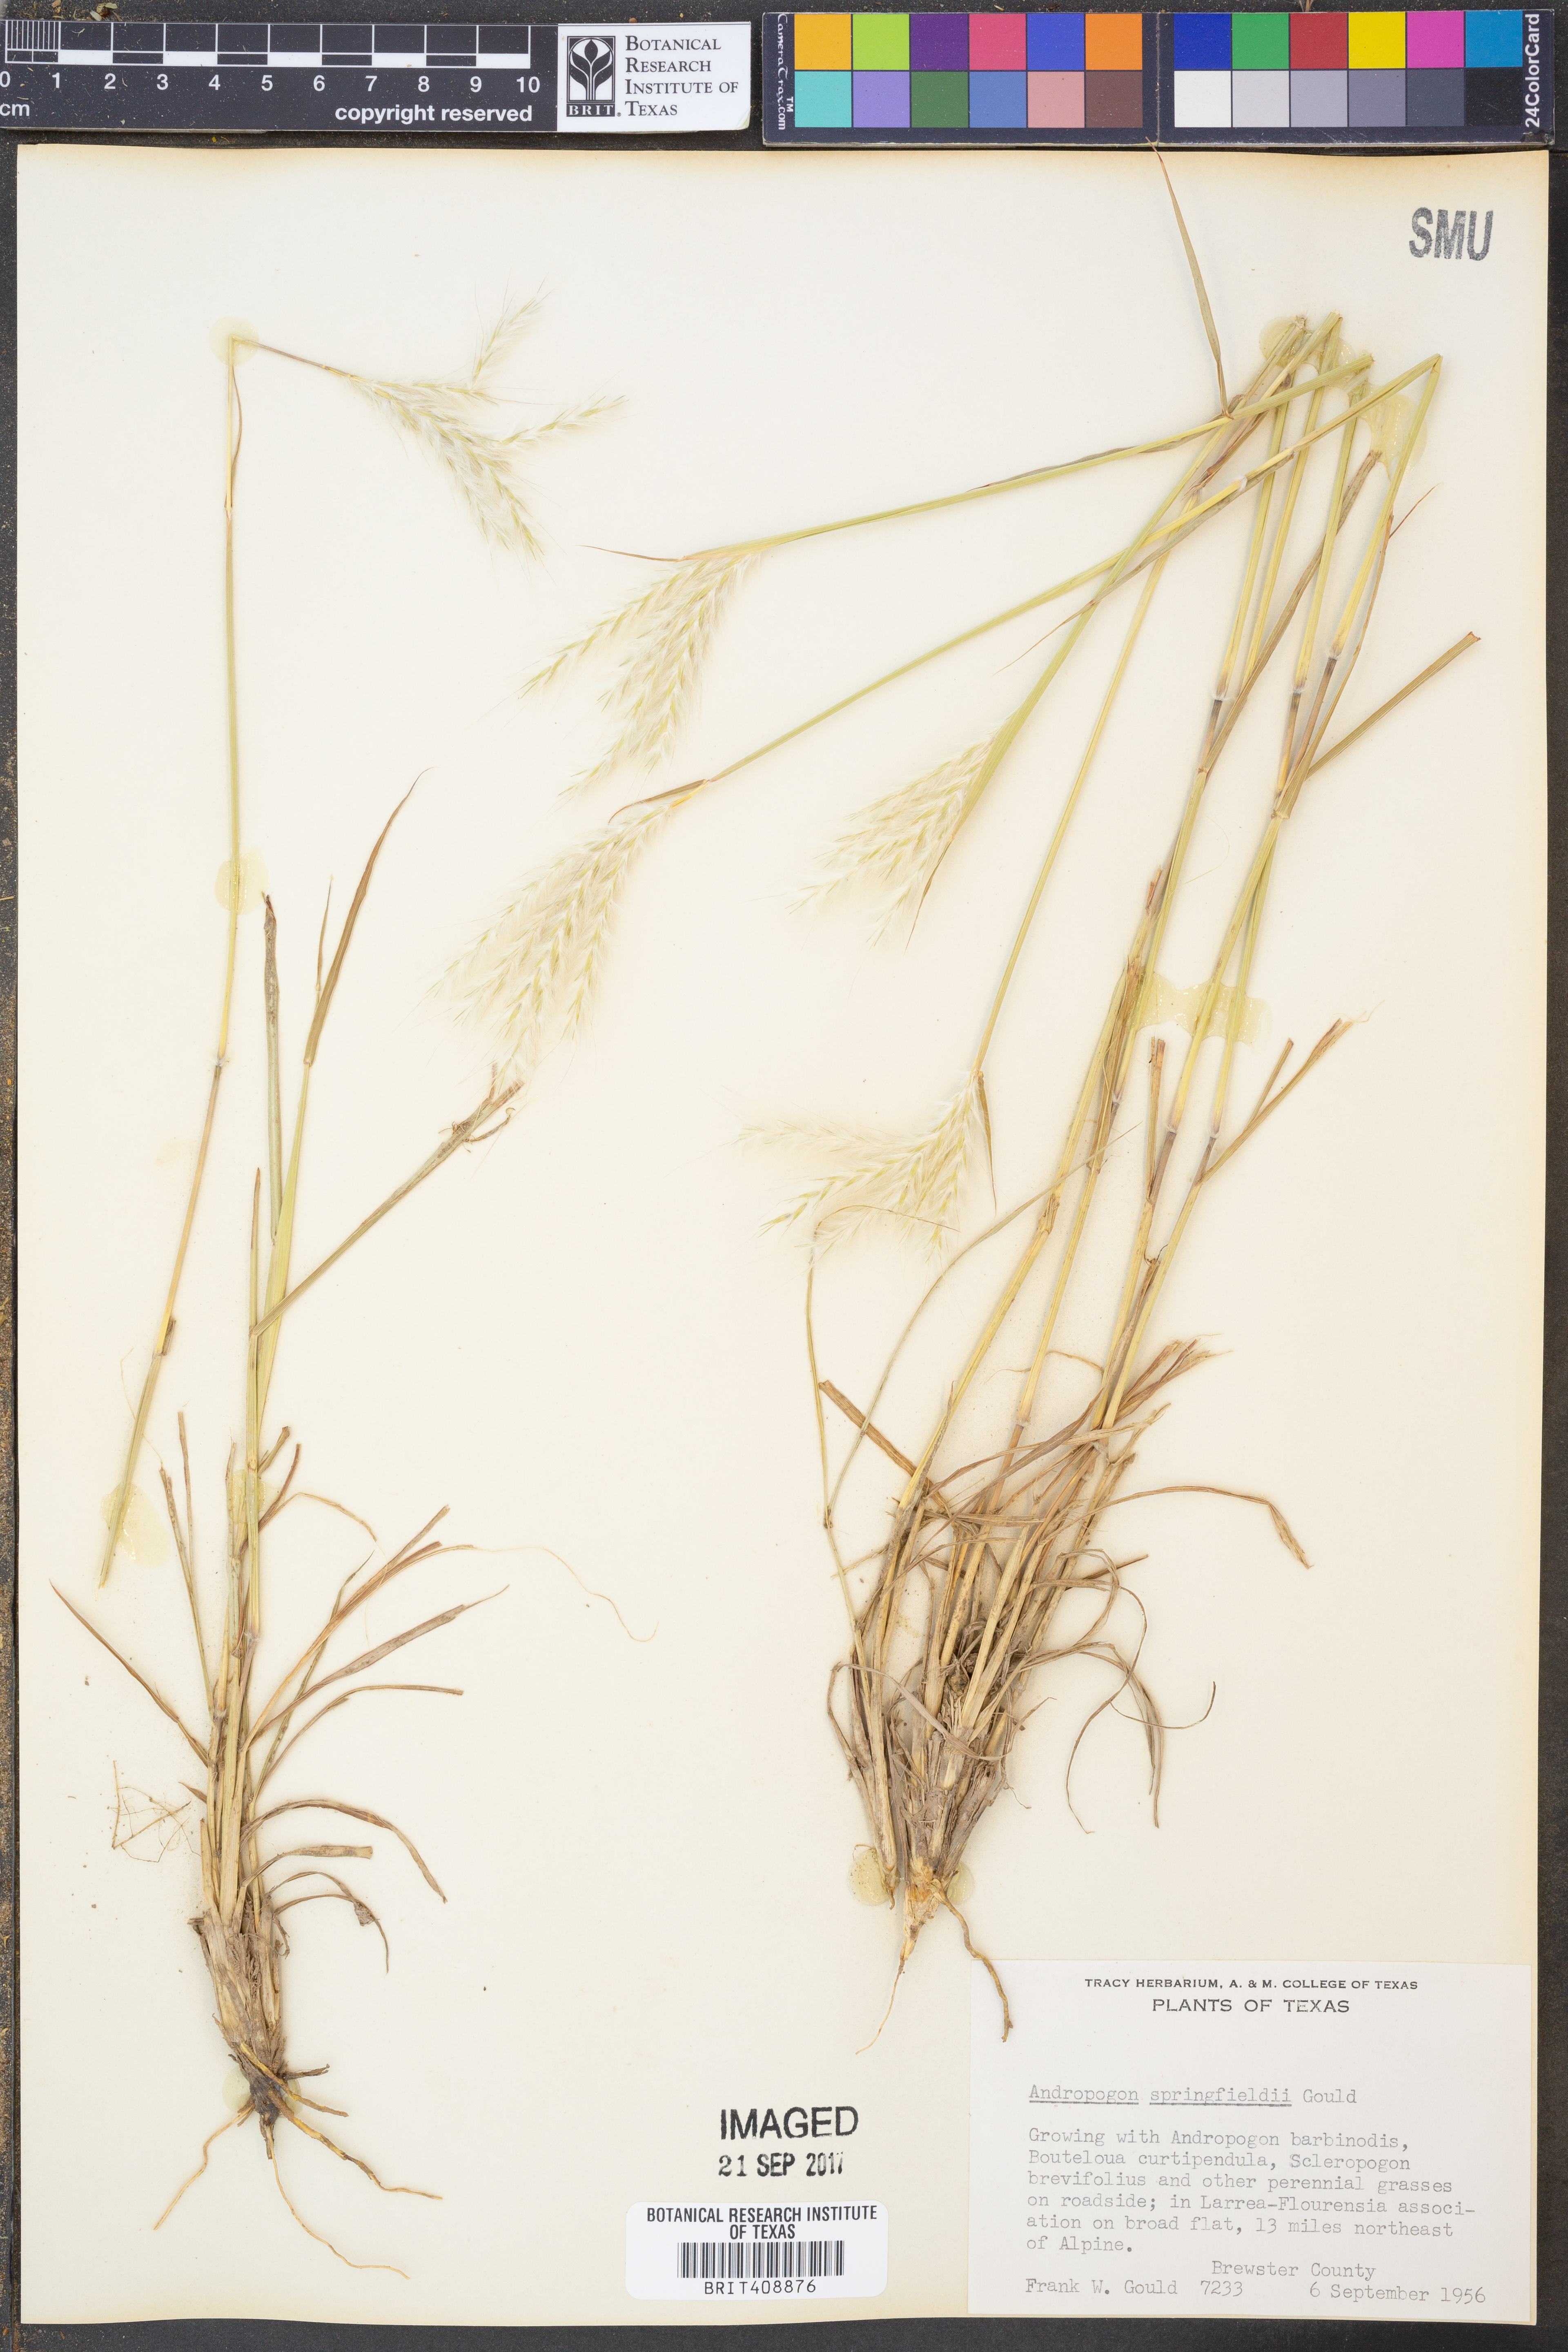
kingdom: Plantae
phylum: Tracheophyta
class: Liliopsida
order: Poales
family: Poaceae
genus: Bothriochloa
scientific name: Bothriochloa springfieldii
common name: Springfield bluestem
